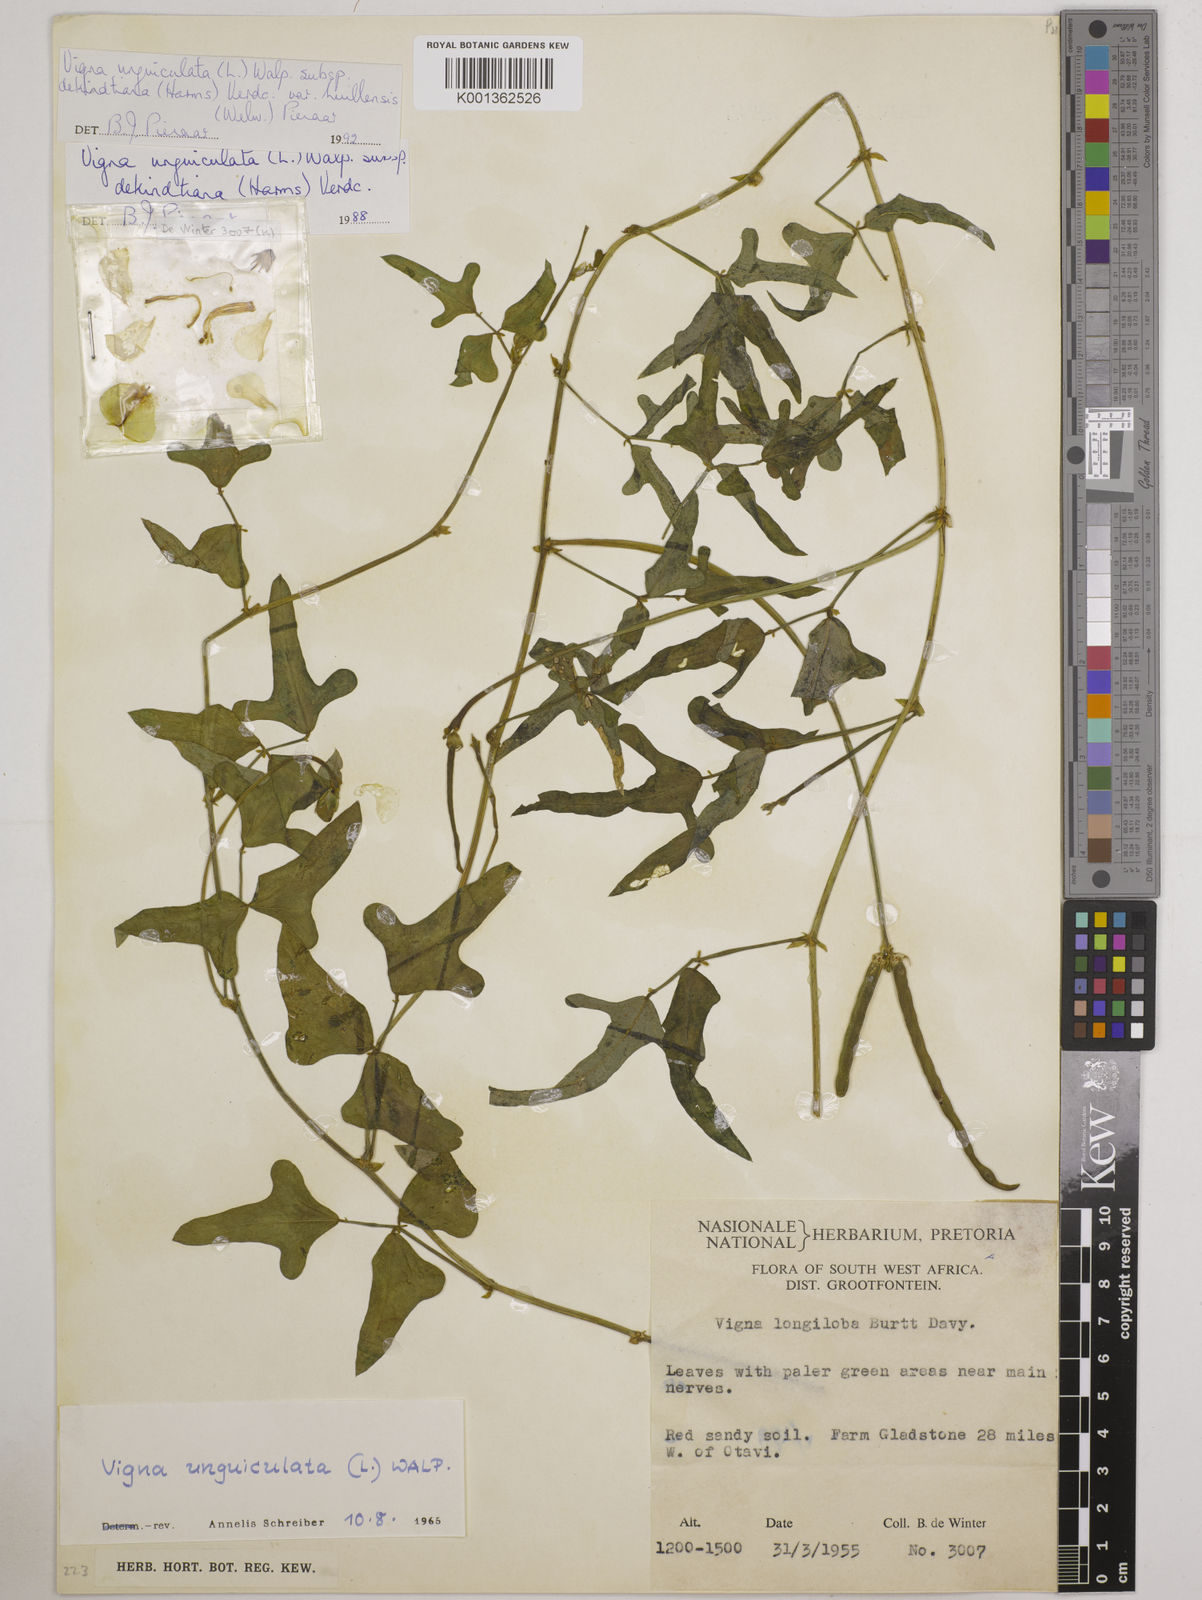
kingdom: Plantae
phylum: Tracheophyta
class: Magnoliopsida
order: Fabales
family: Fabaceae
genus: Vigna
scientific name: Vigna unguiculata
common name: Cowpea
